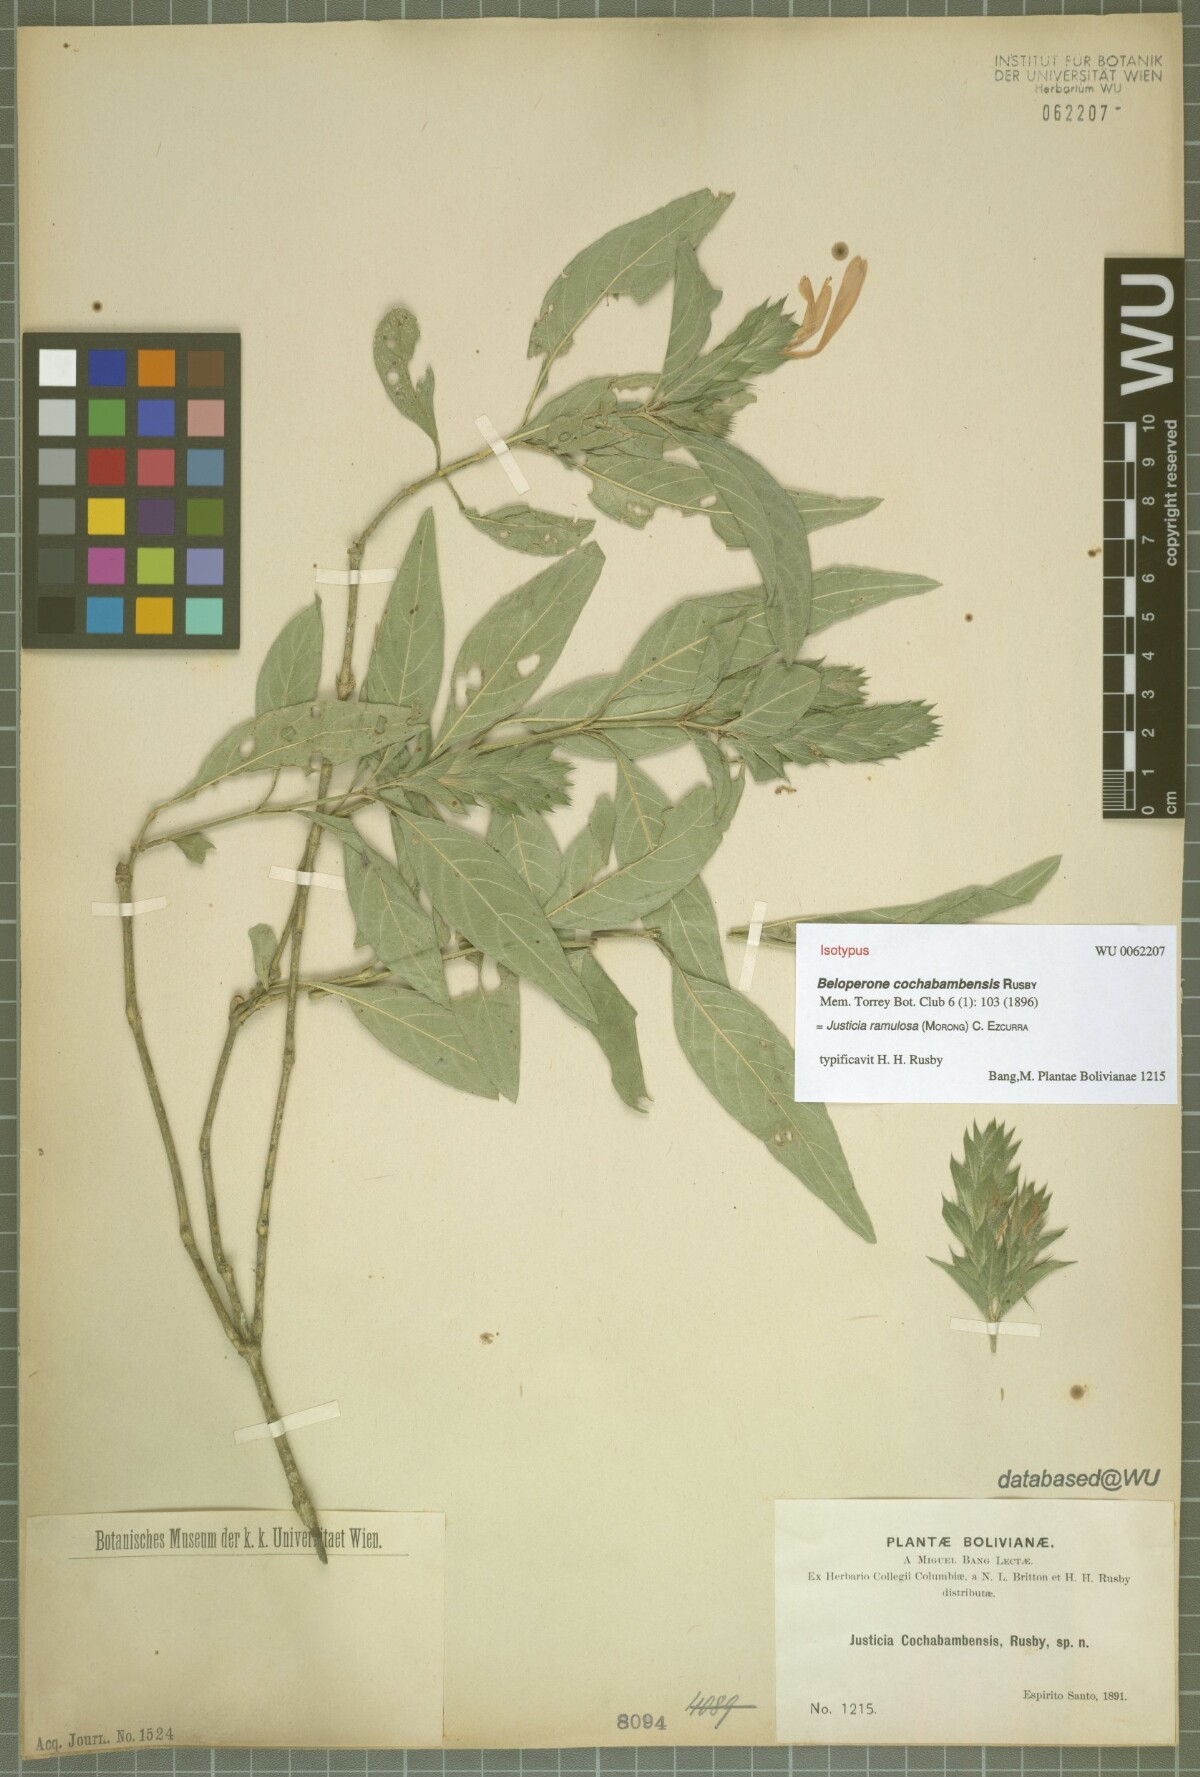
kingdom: Plantae
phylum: Tracheophyta
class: Magnoliopsida
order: Lamiales
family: Acanthaceae
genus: Justicia
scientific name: Justicia ramulosa
